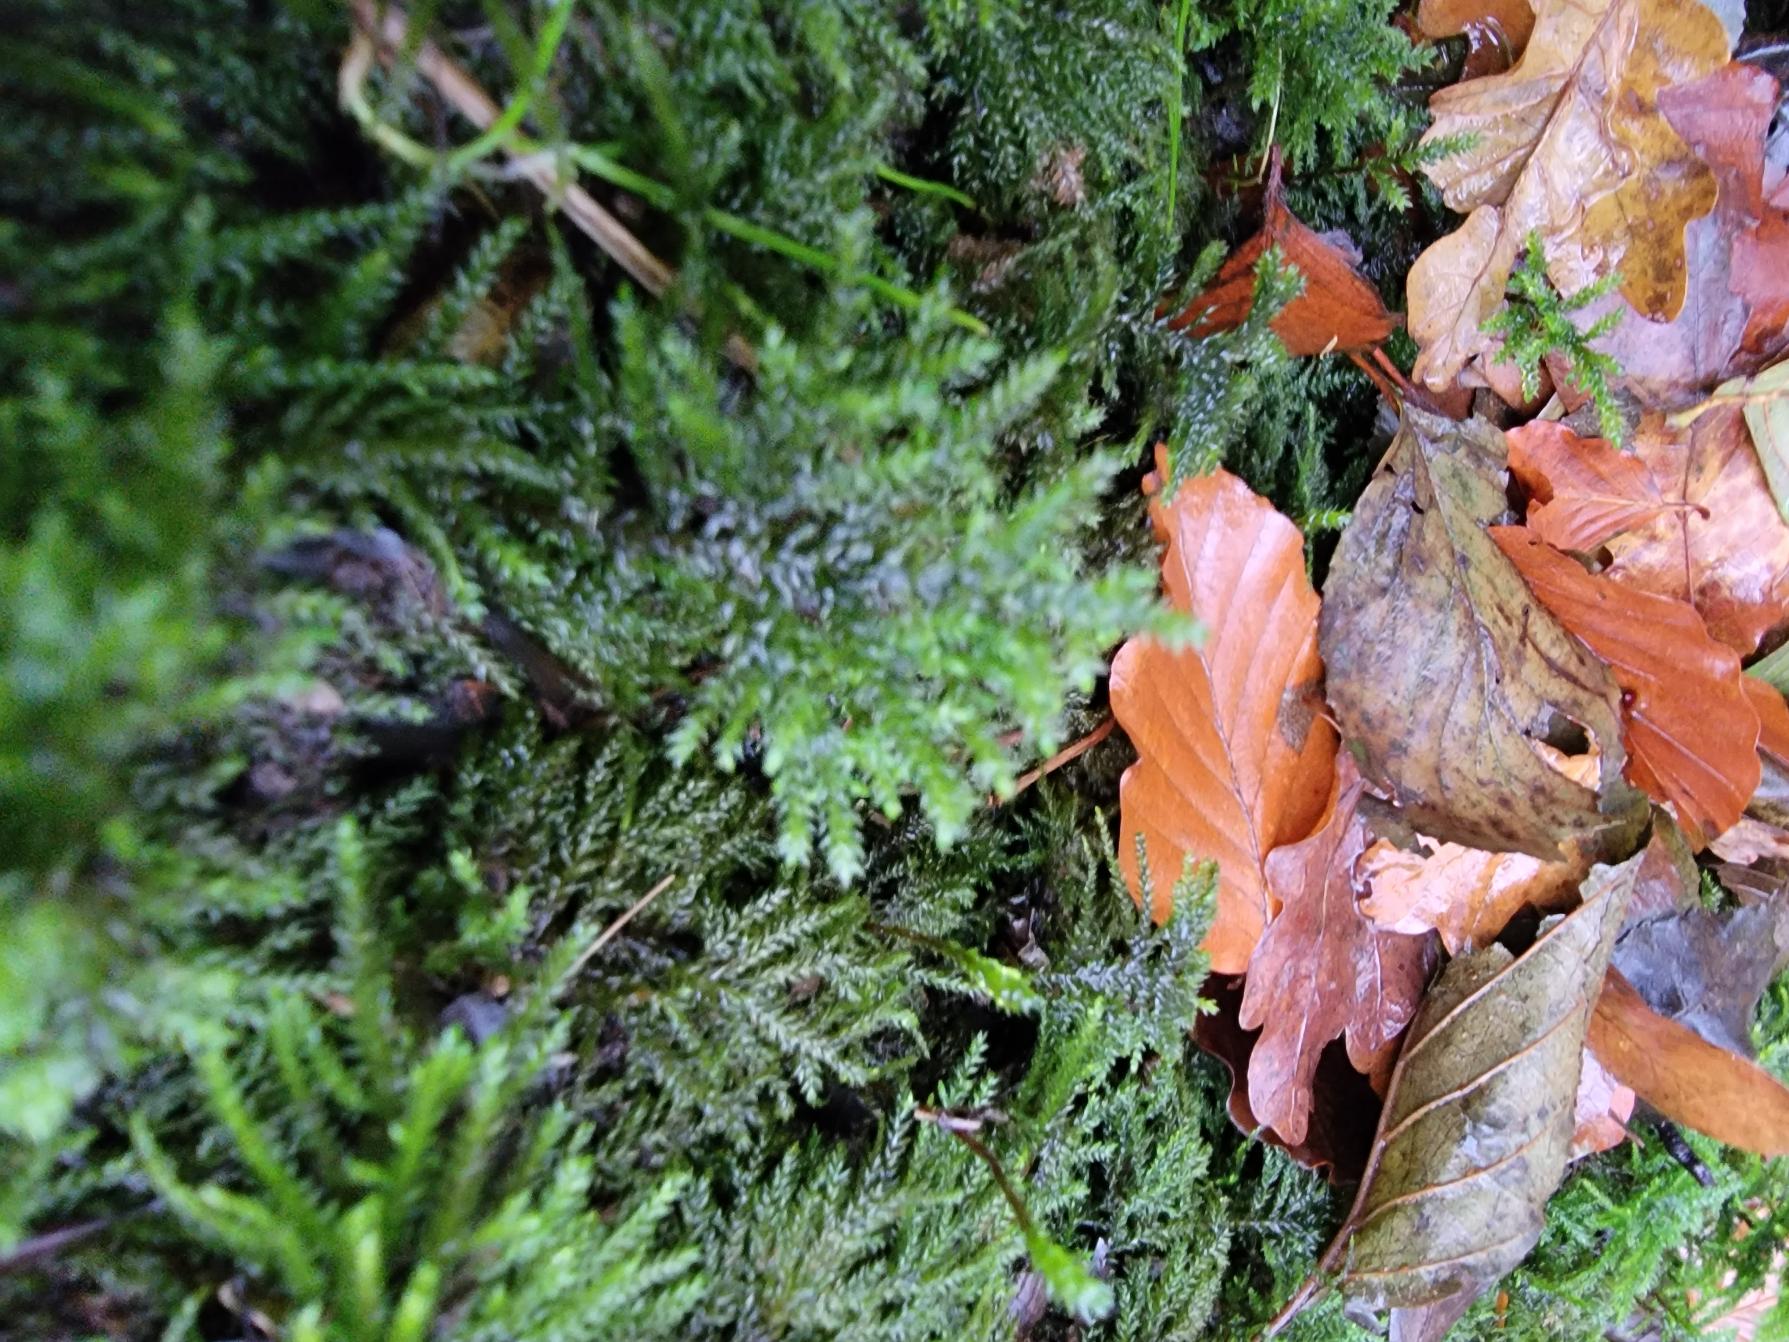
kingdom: Plantae
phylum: Bryophyta
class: Bryopsida
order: Hypnales
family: Neckeraceae
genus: Thamnobryum
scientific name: Thamnobryum alopecurum
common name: Mat bækkost
